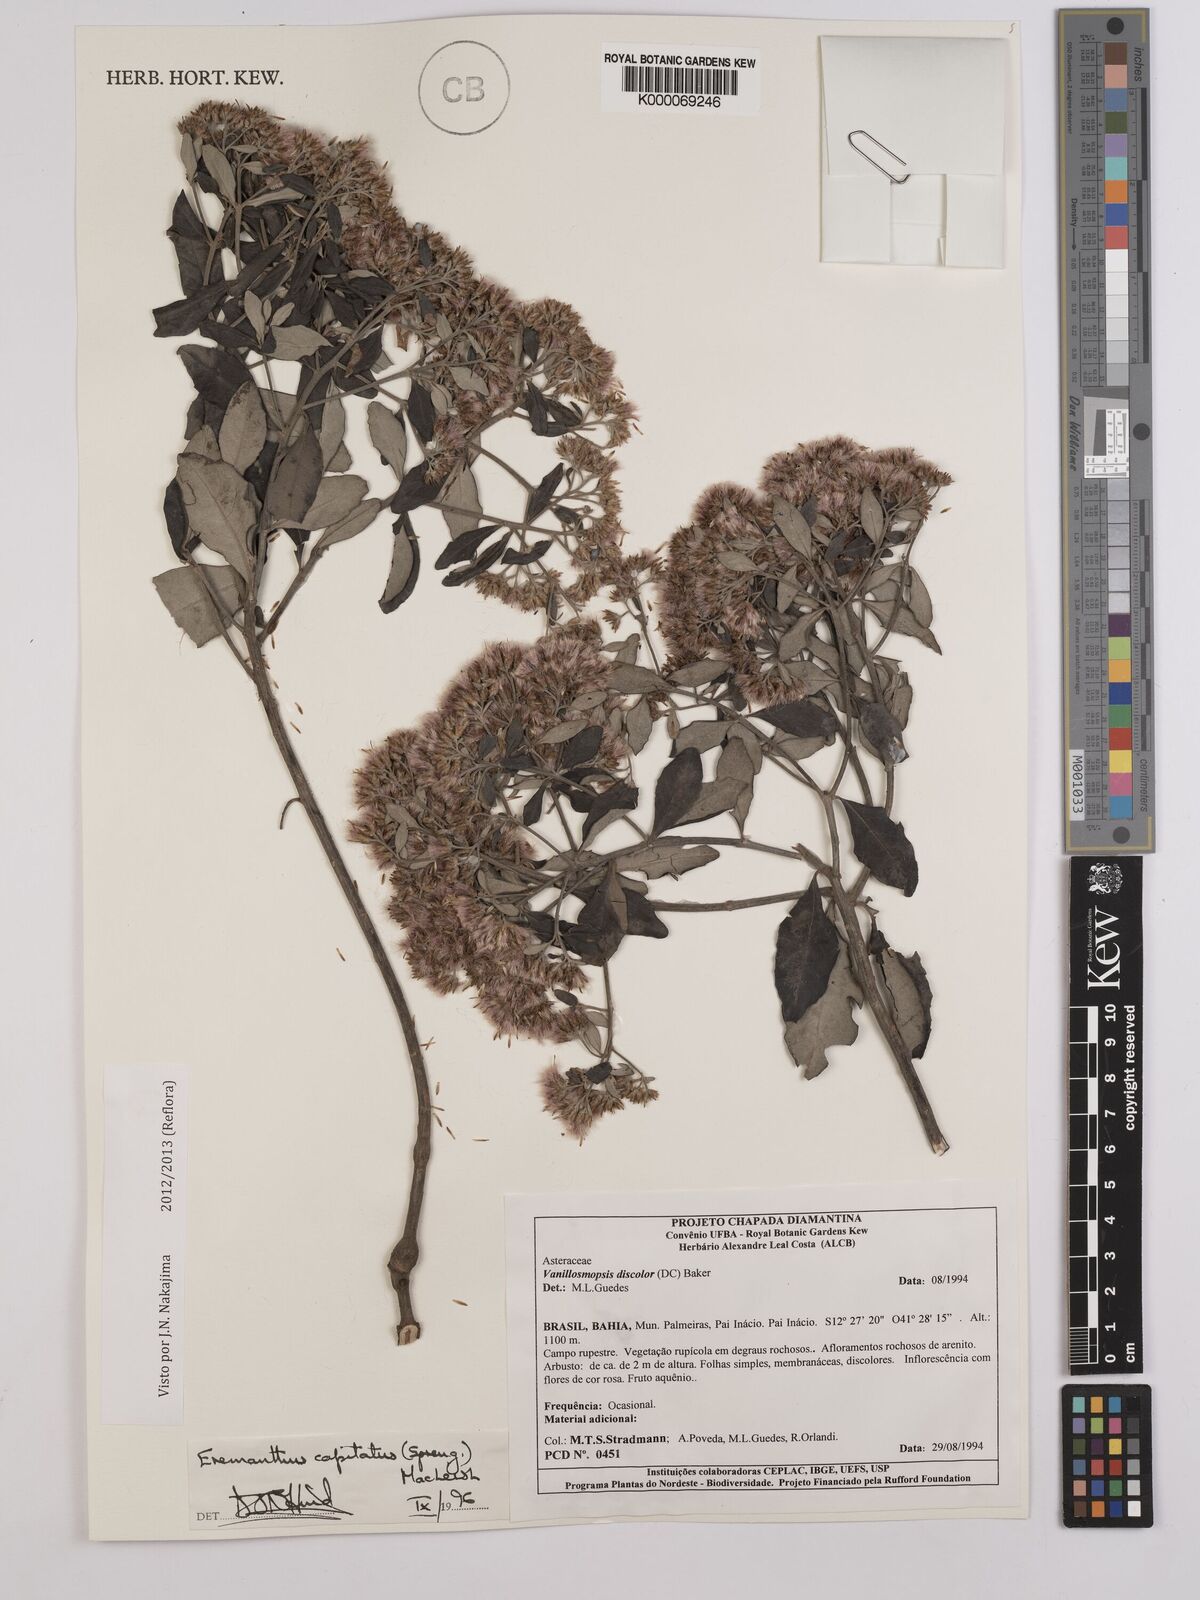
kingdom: Plantae
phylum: Tracheophyta
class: Magnoliopsida
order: Asterales
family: Asteraceae
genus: Eremanthus
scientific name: Eremanthus capitatus
